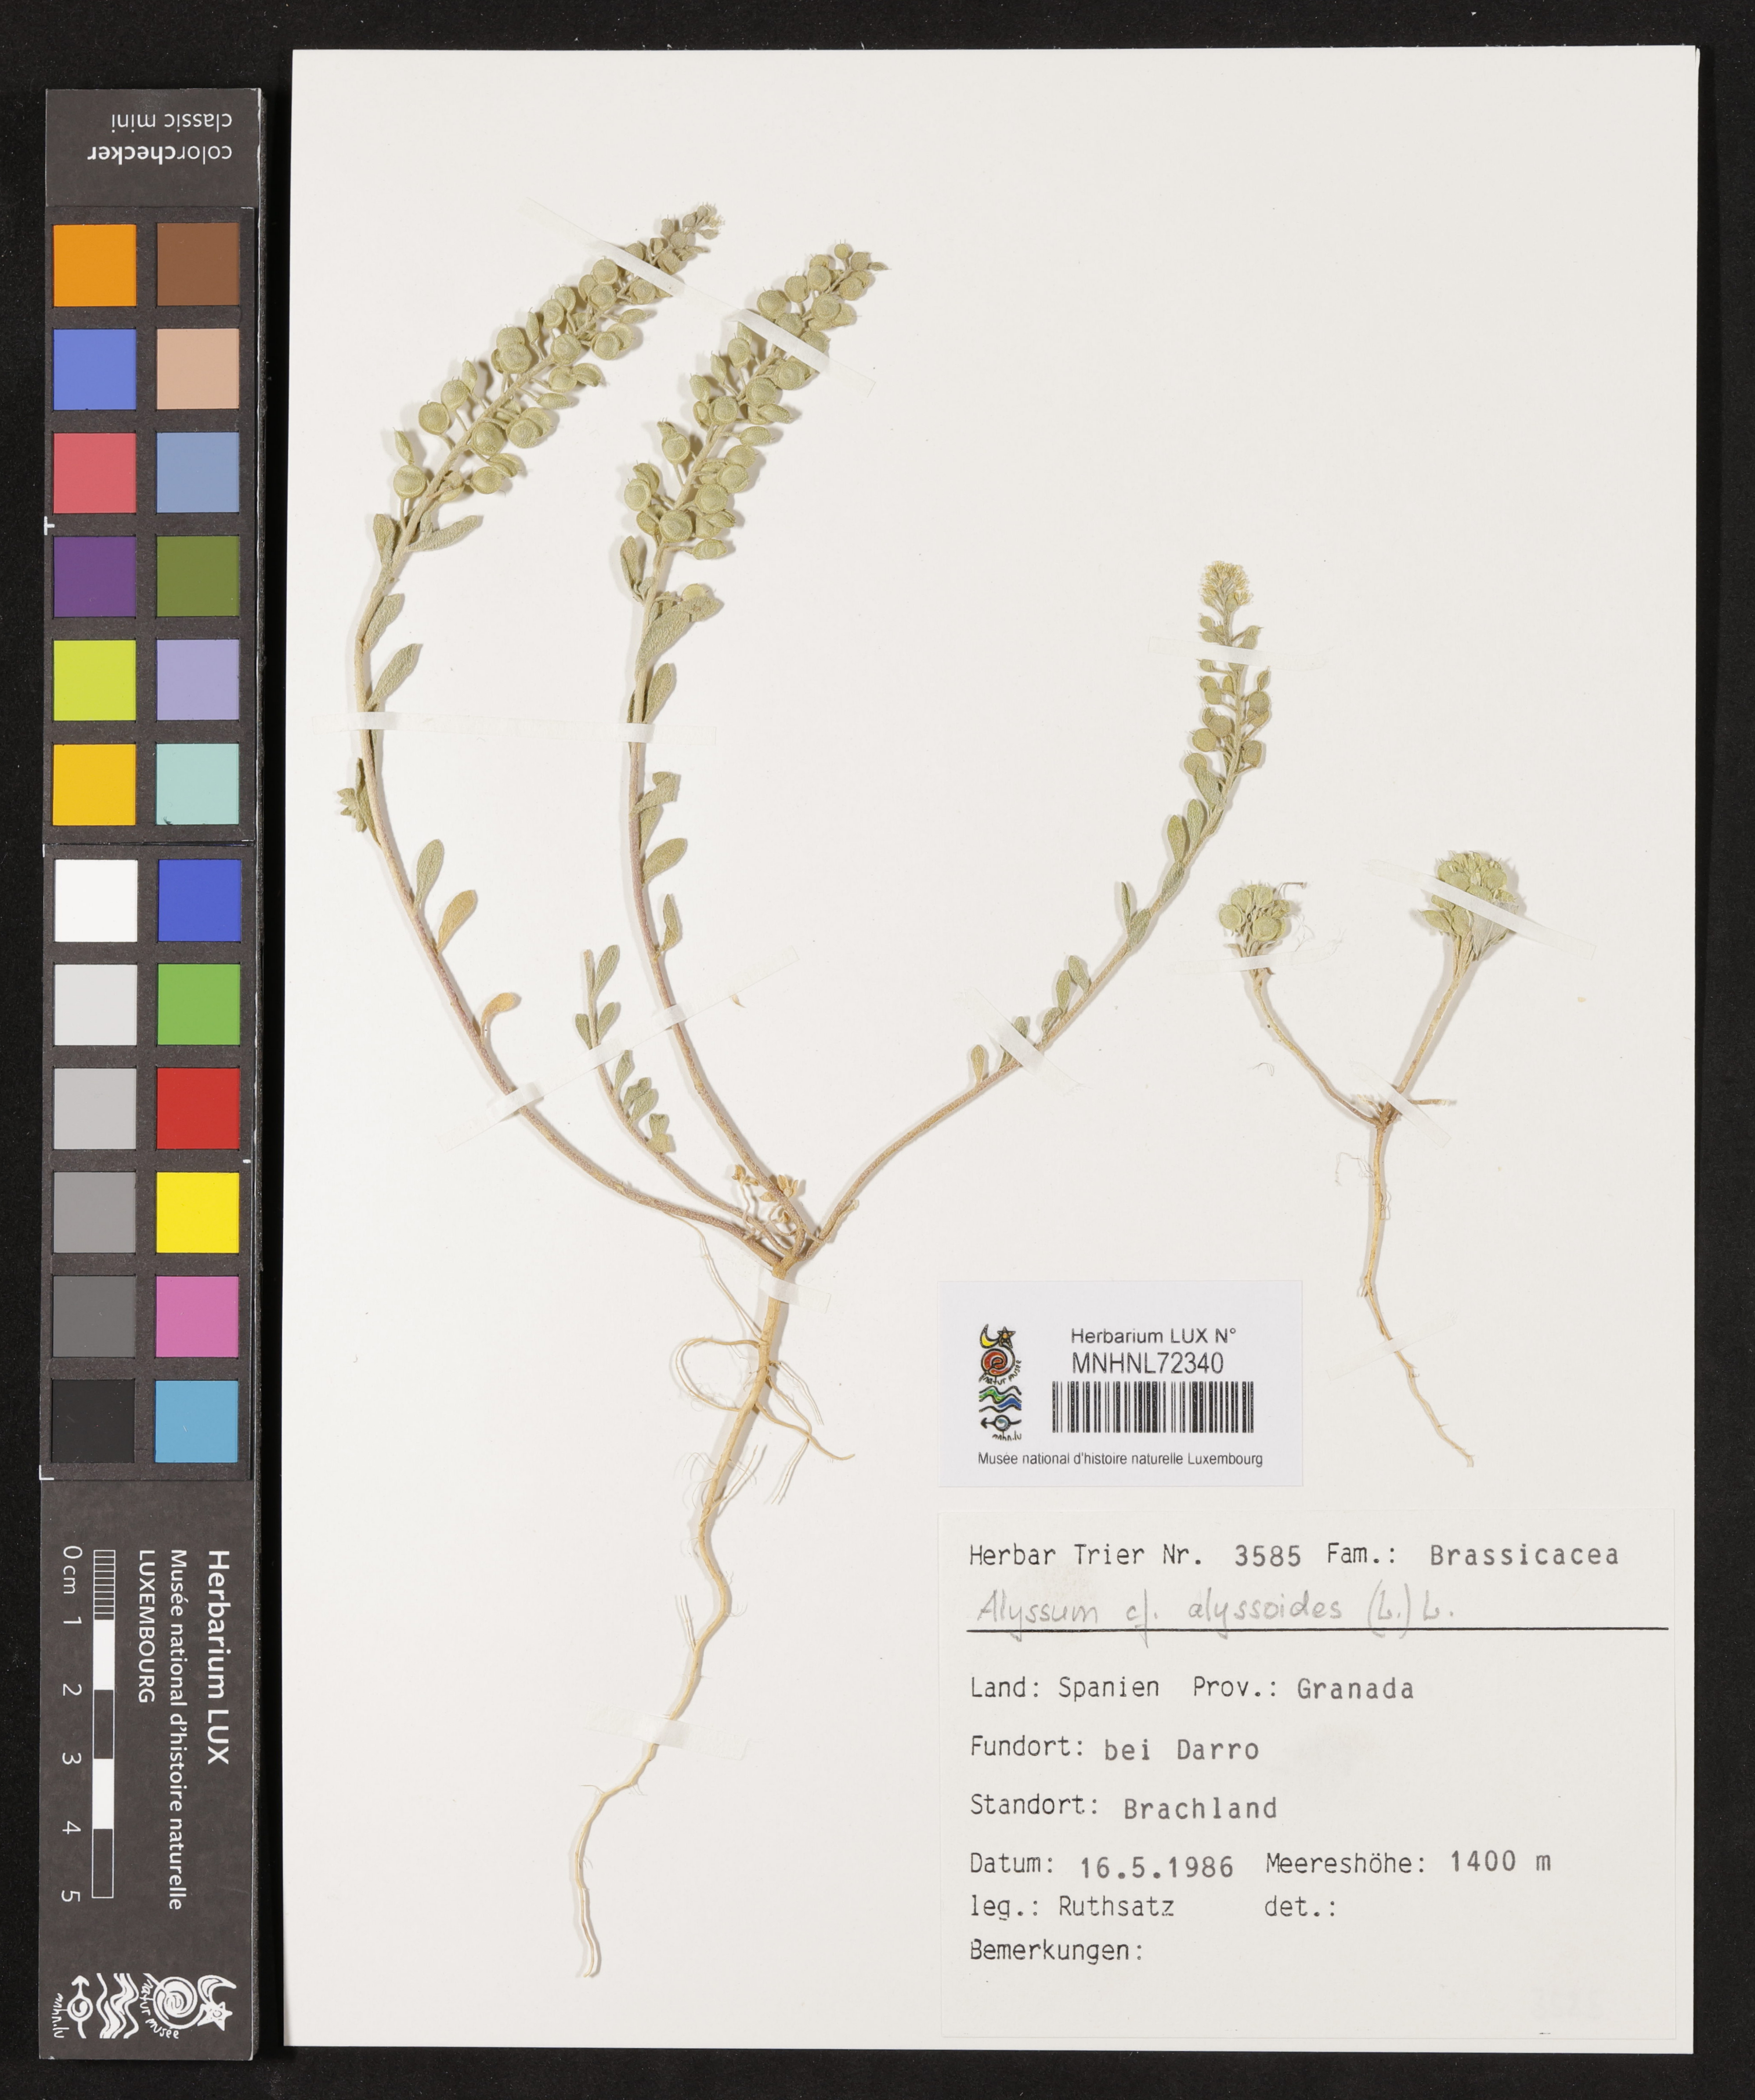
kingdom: Plantae
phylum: Tracheophyta
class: Magnoliopsida
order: Brassicales
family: Brassicaceae
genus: Alyssum
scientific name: Alyssum alyssoides
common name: Small alison
